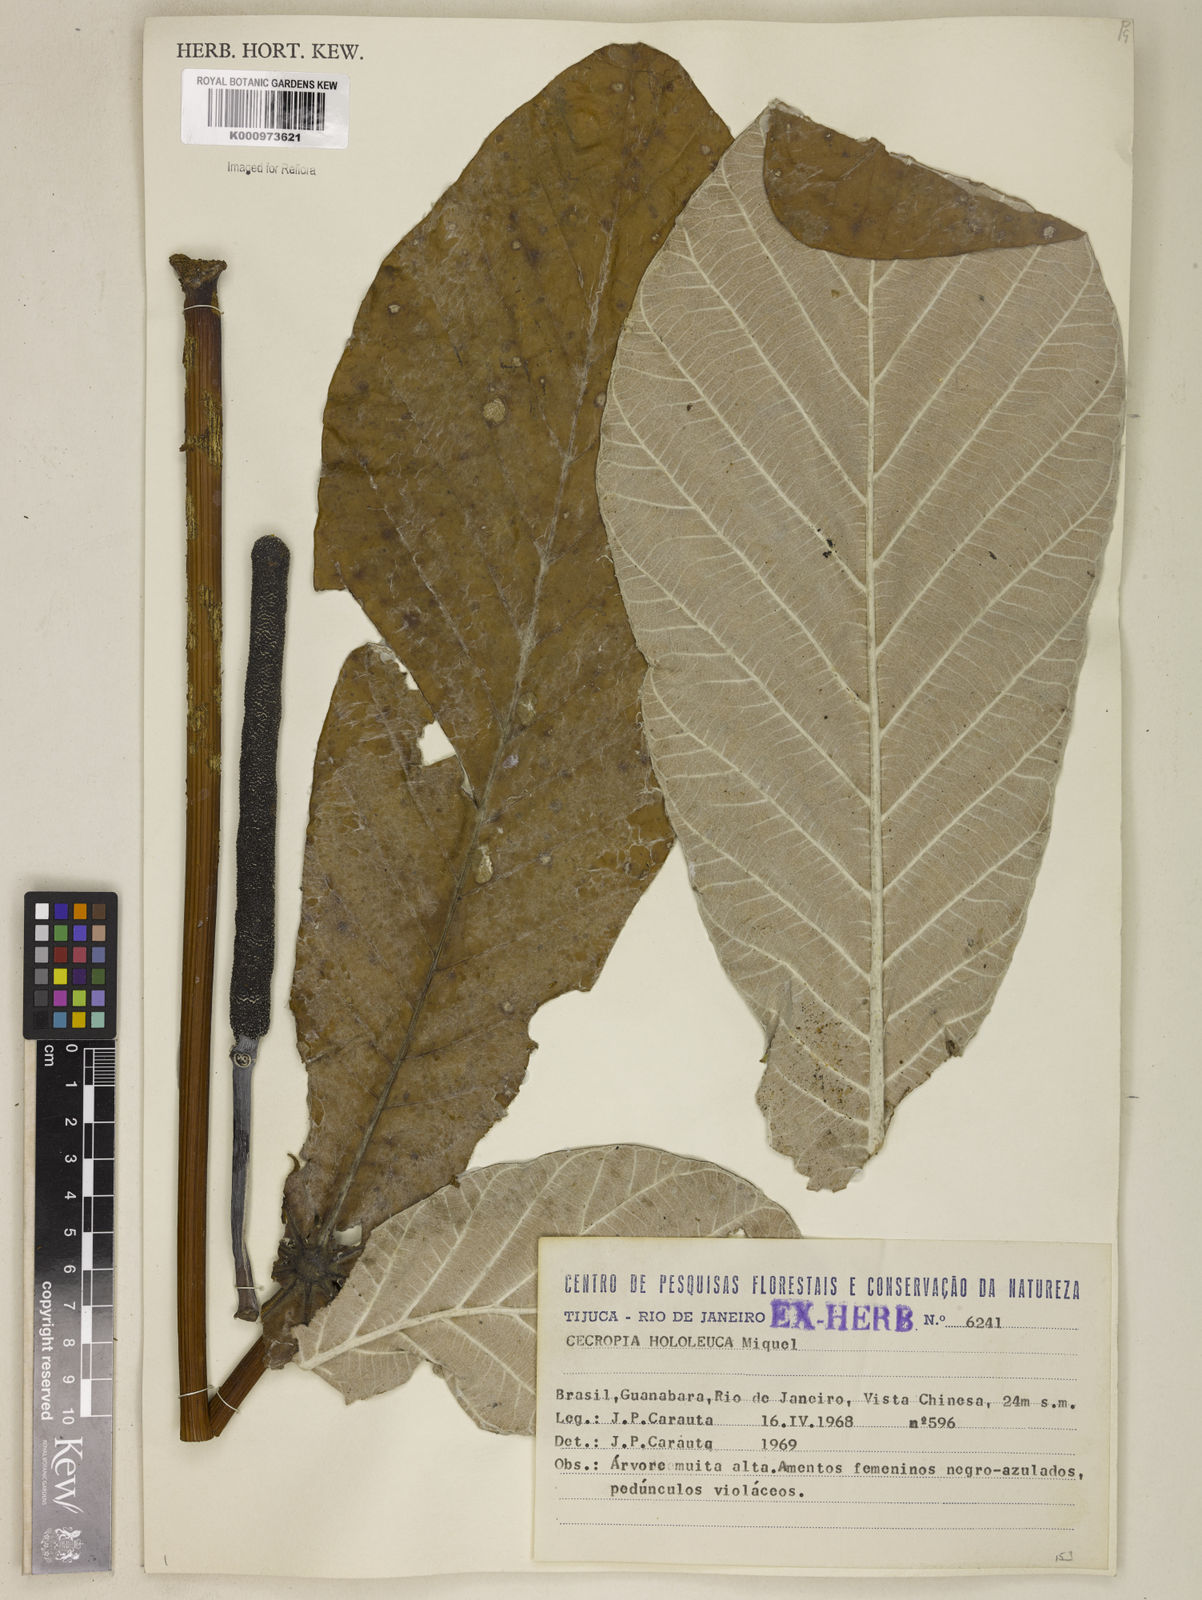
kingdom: Plantae
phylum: Tracheophyta
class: Magnoliopsida
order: Rosales
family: Urticaceae
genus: Cecropia
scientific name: Cecropia hololeuca
